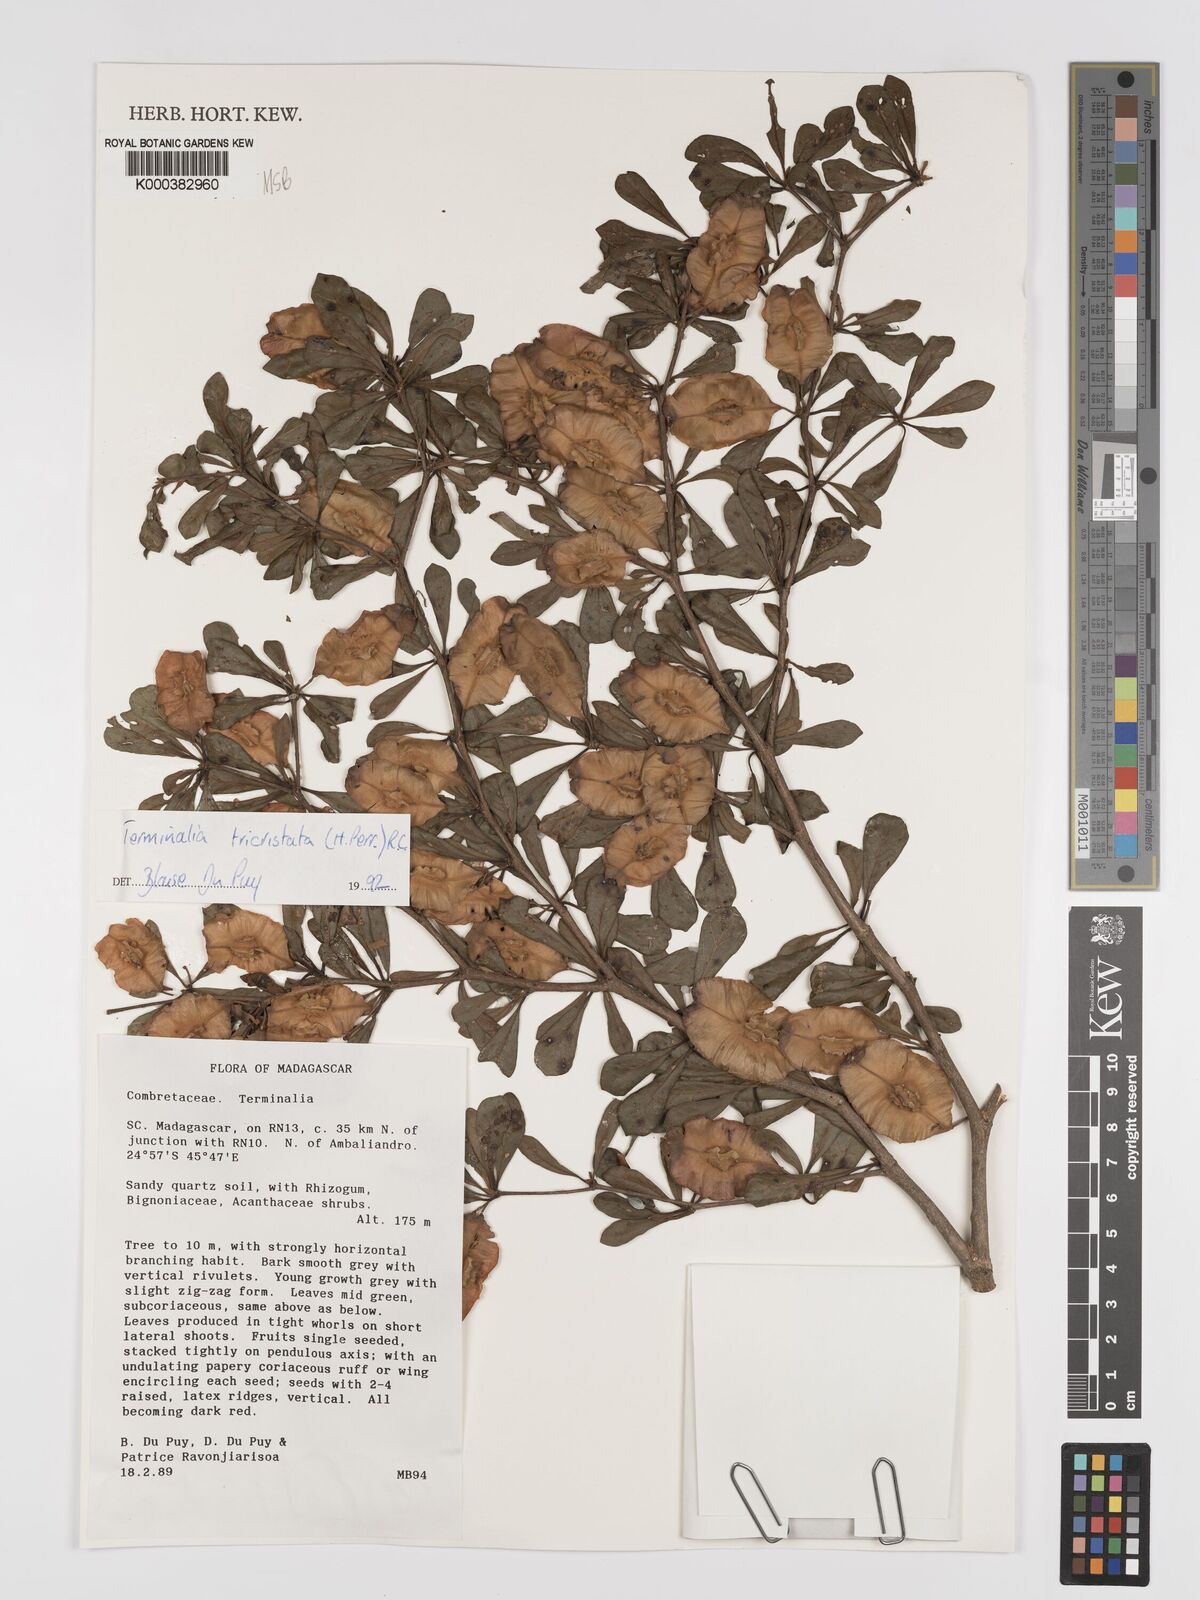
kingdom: Plantae
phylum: Tracheophyta
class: Magnoliopsida
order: Myrtales
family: Combretaceae
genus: Terminalia
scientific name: Terminalia
